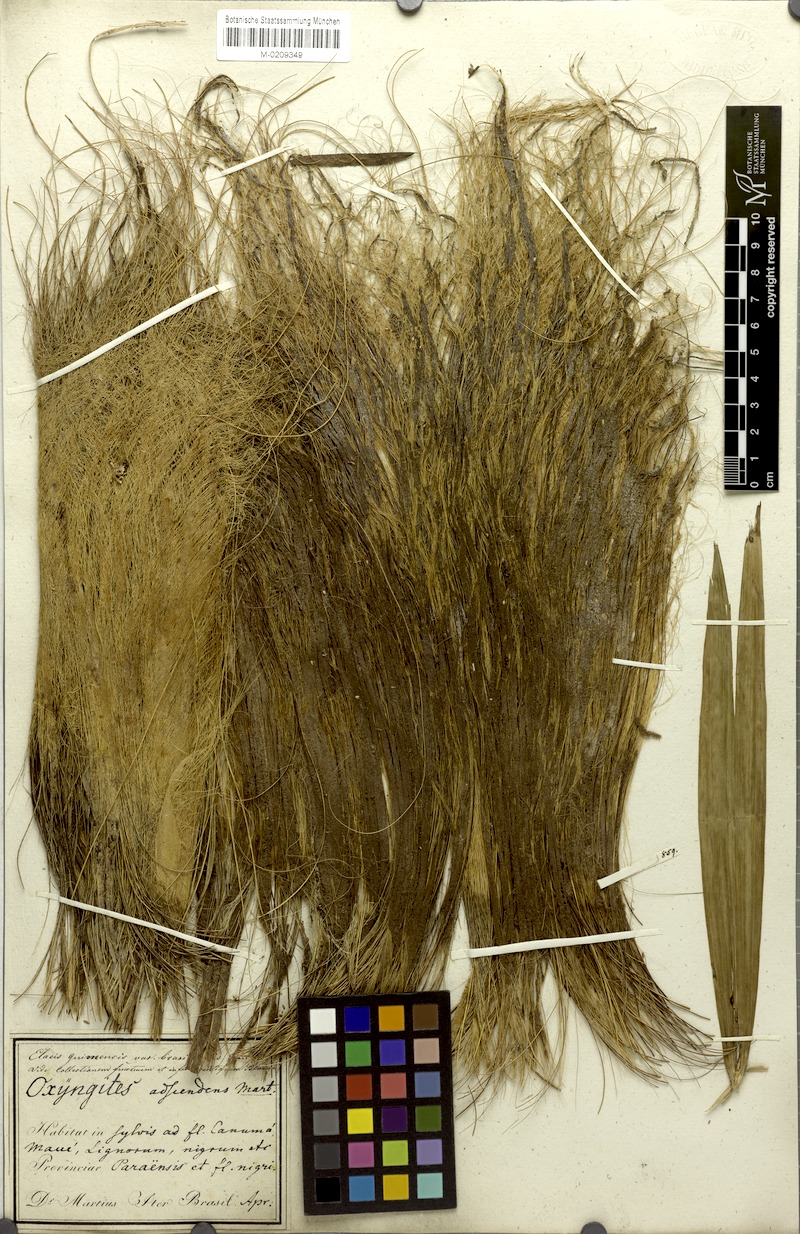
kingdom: Plantae
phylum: Tracheophyta
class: Liliopsida
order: Arecales
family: Arecaceae
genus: Elaeis
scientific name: Elaeis guineensis
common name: Oil palm
